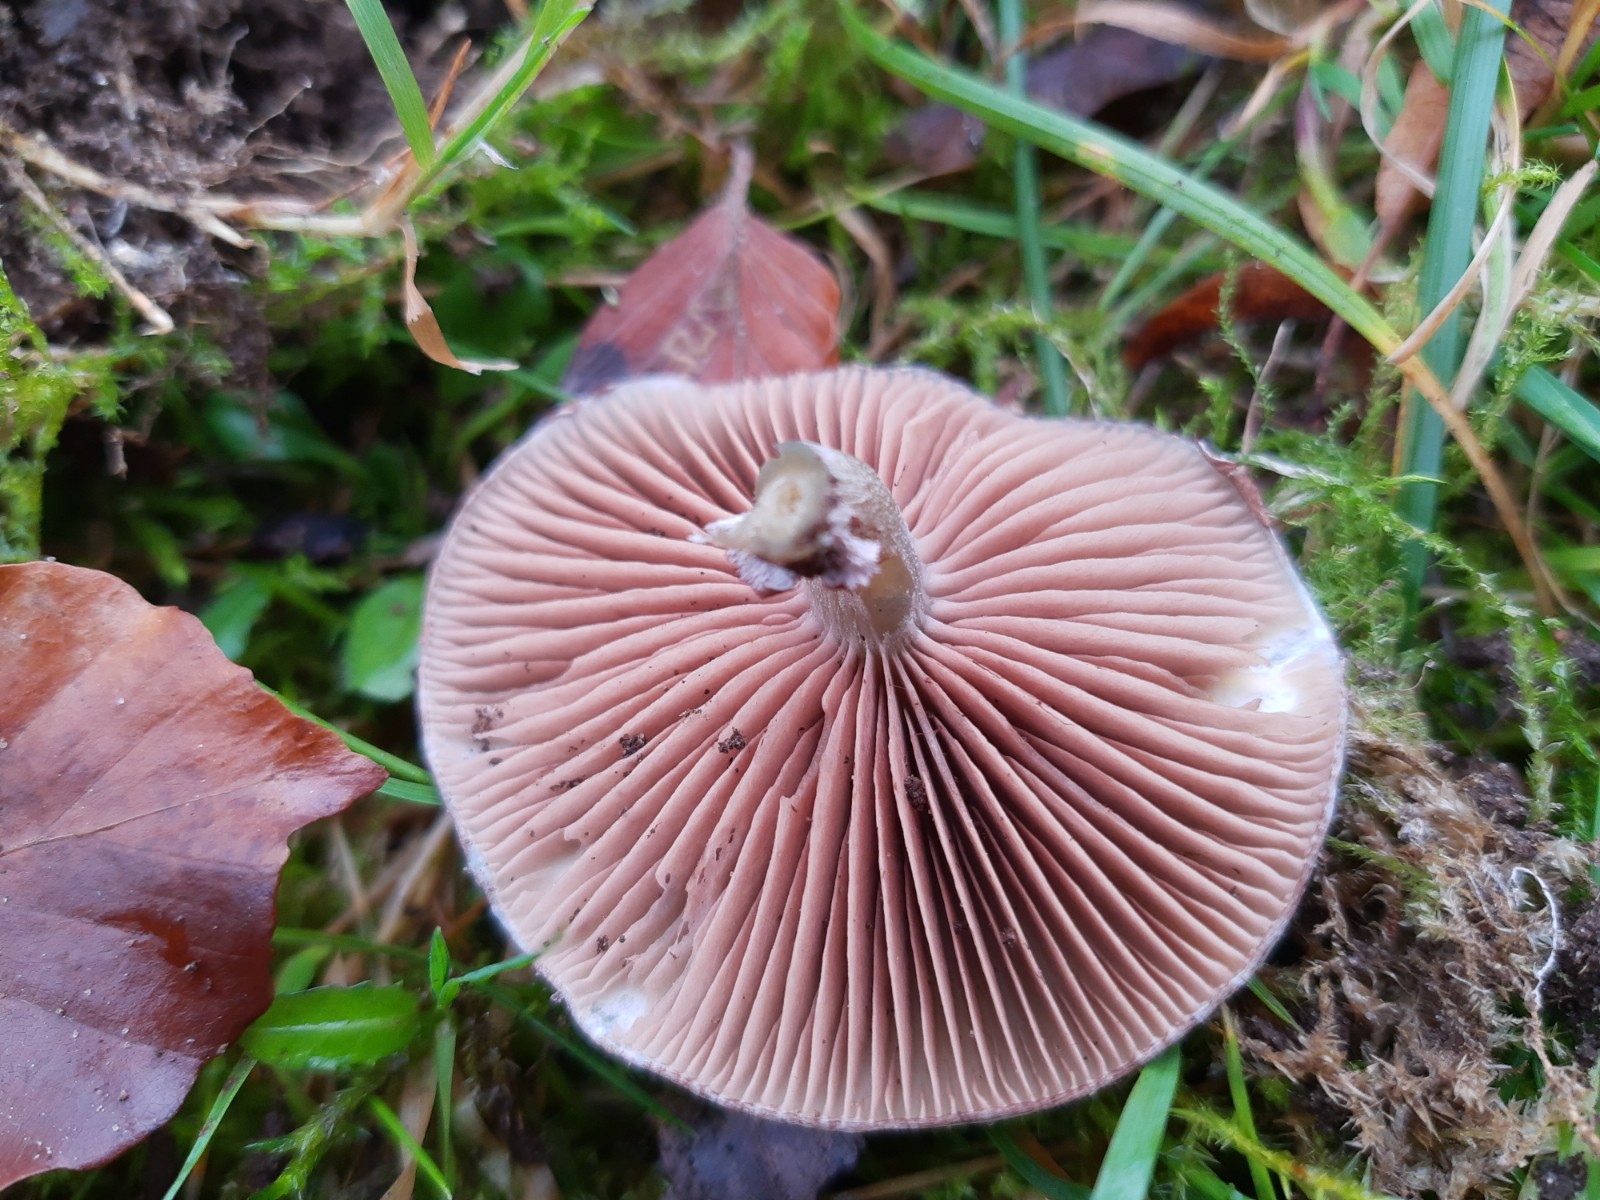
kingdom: Fungi
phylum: Basidiomycota
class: Agaricomycetes
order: Agaricales
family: Strophariaceae
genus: Stropharia
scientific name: Stropharia cyanea
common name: blågrøn bredblad
